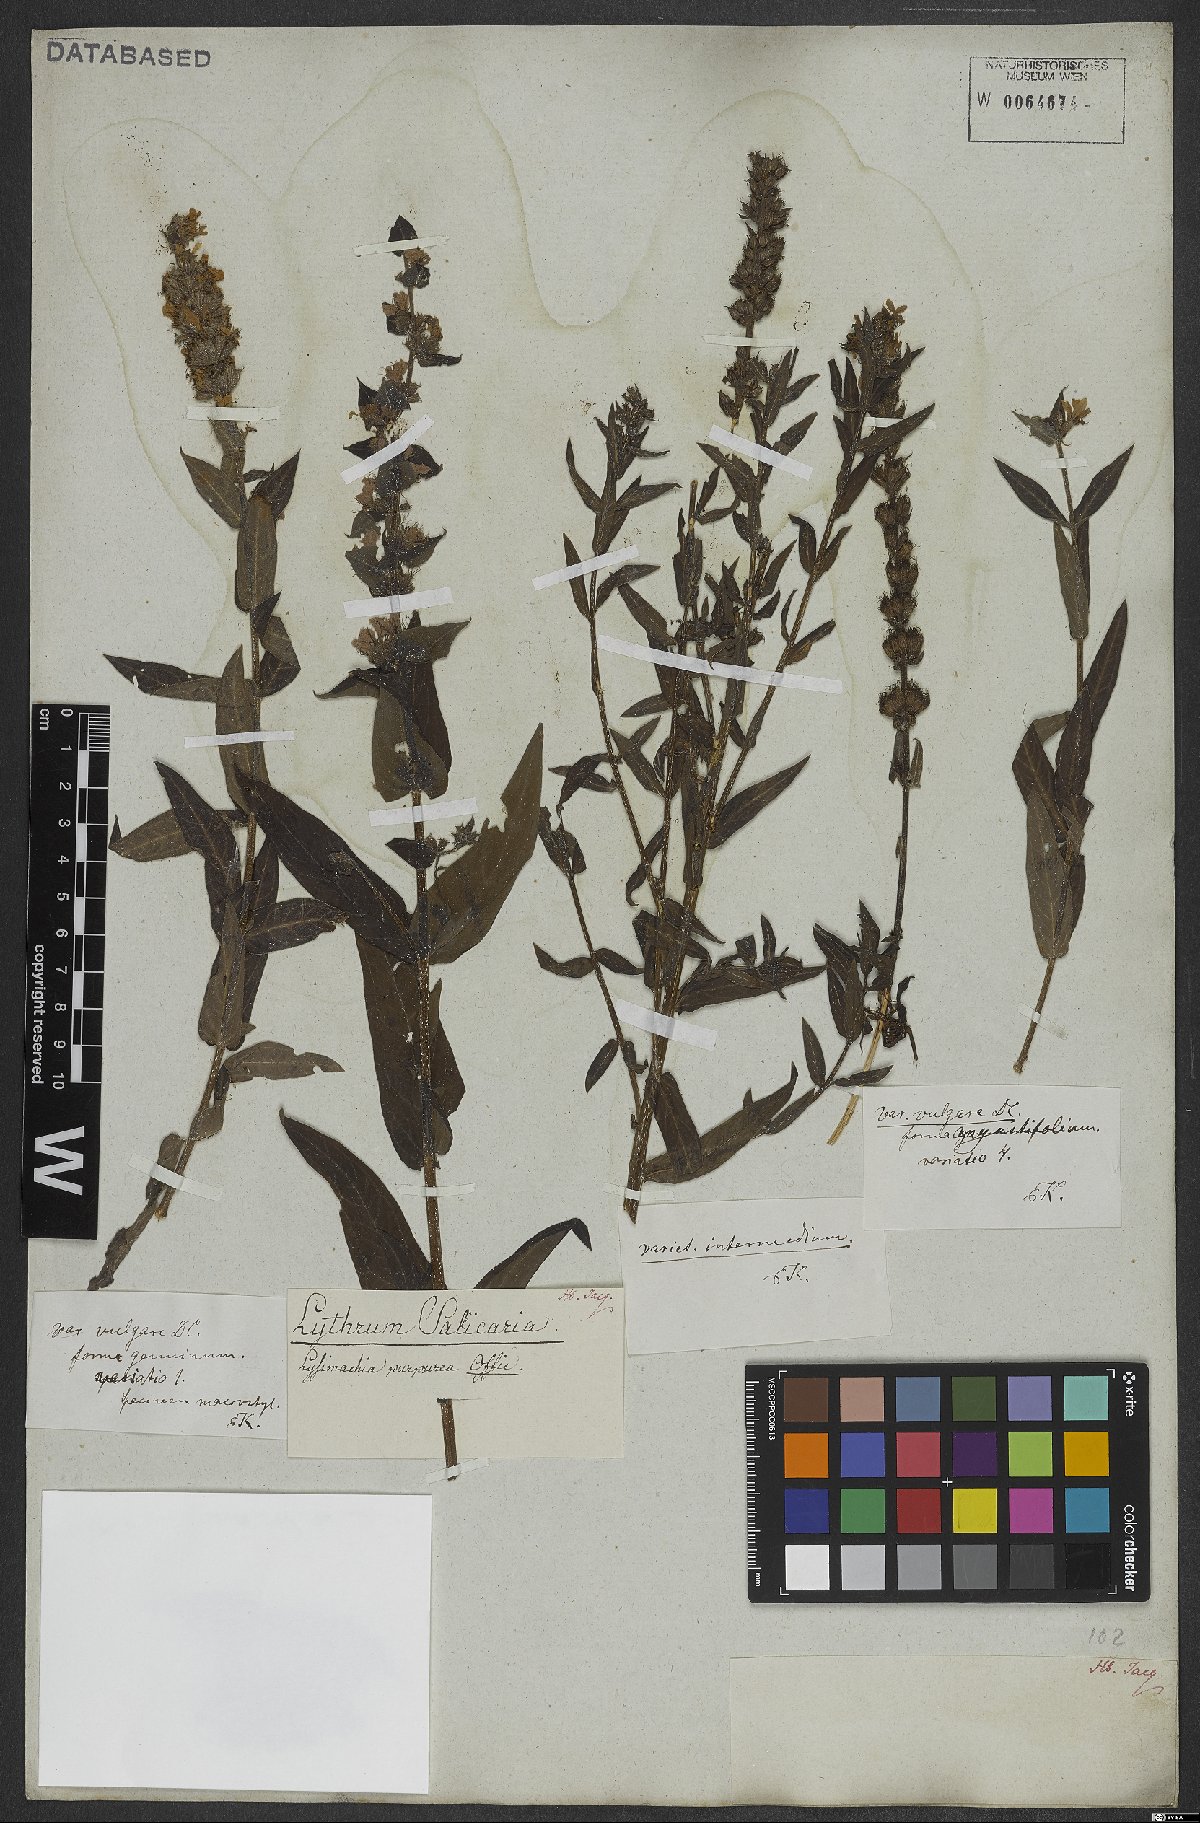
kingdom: Plantae
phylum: Tracheophyta
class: Magnoliopsida
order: Myrtales
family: Lythraceae
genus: Lythrum
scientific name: Lythrum salicaria
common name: Purple loosestrife
